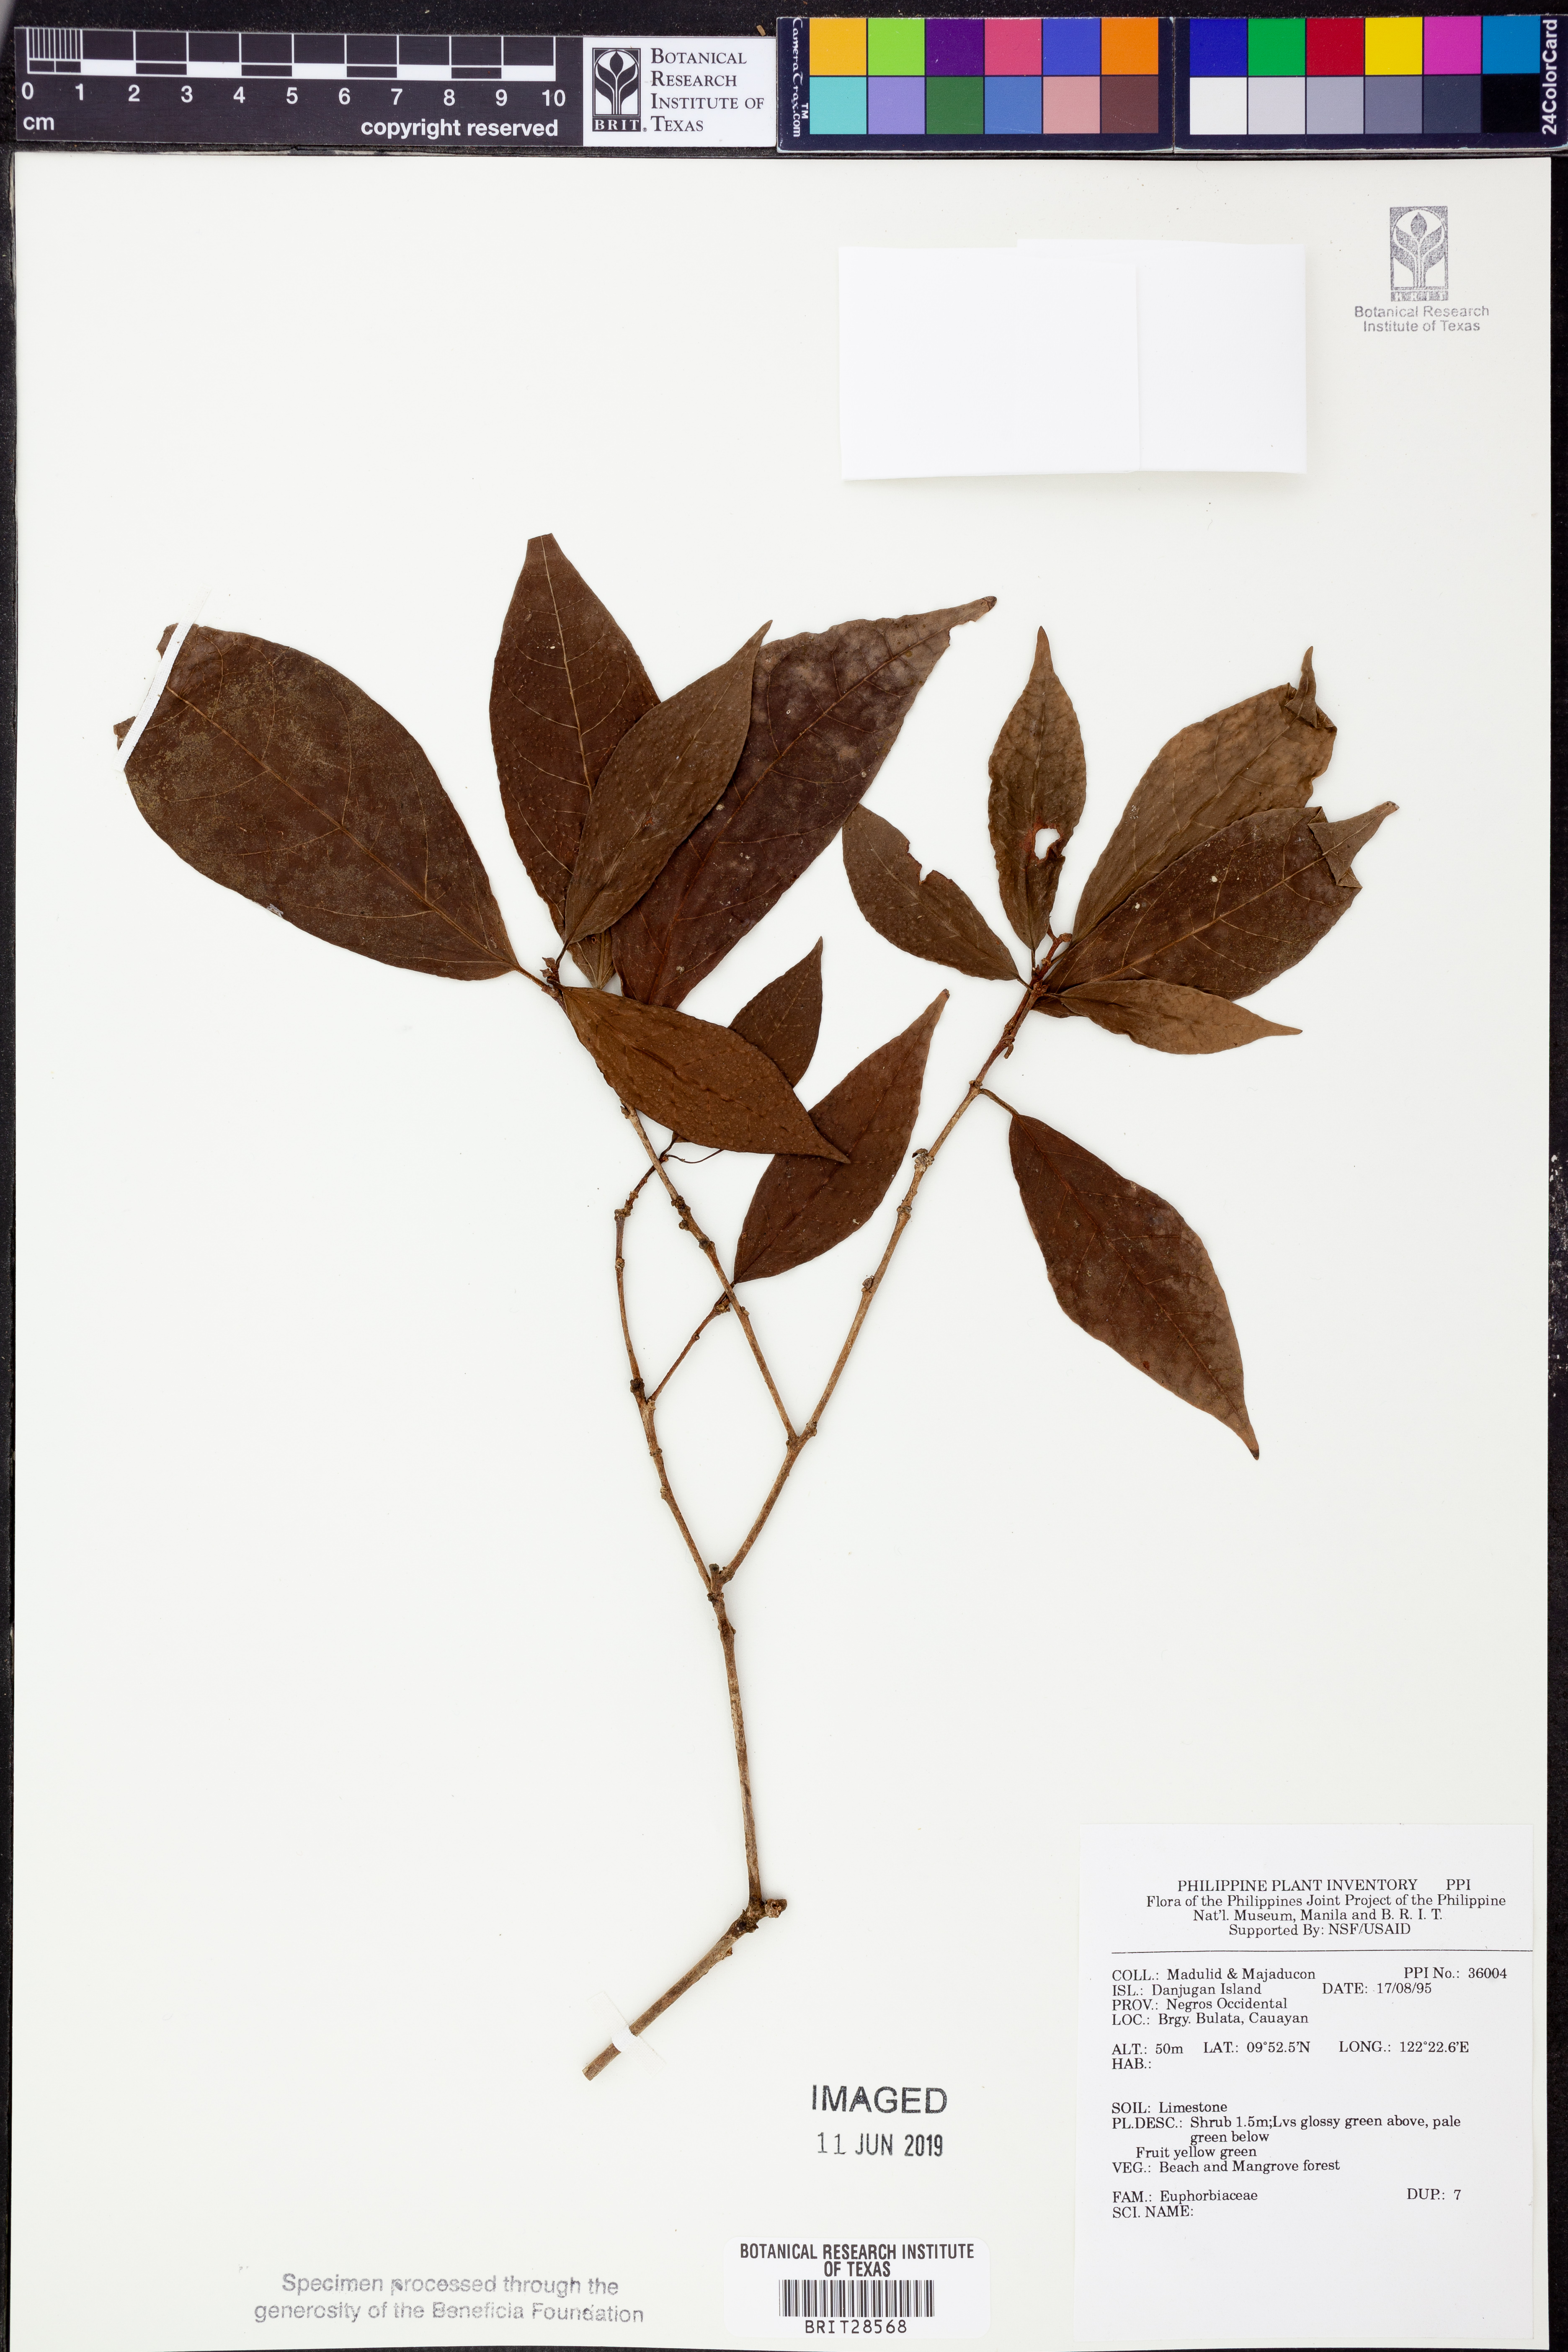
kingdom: Plantae
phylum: Tracheophyta
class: Magnoliopsida
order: Malpighiales
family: Euphorbiaceae
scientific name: Euphorbiaceae
